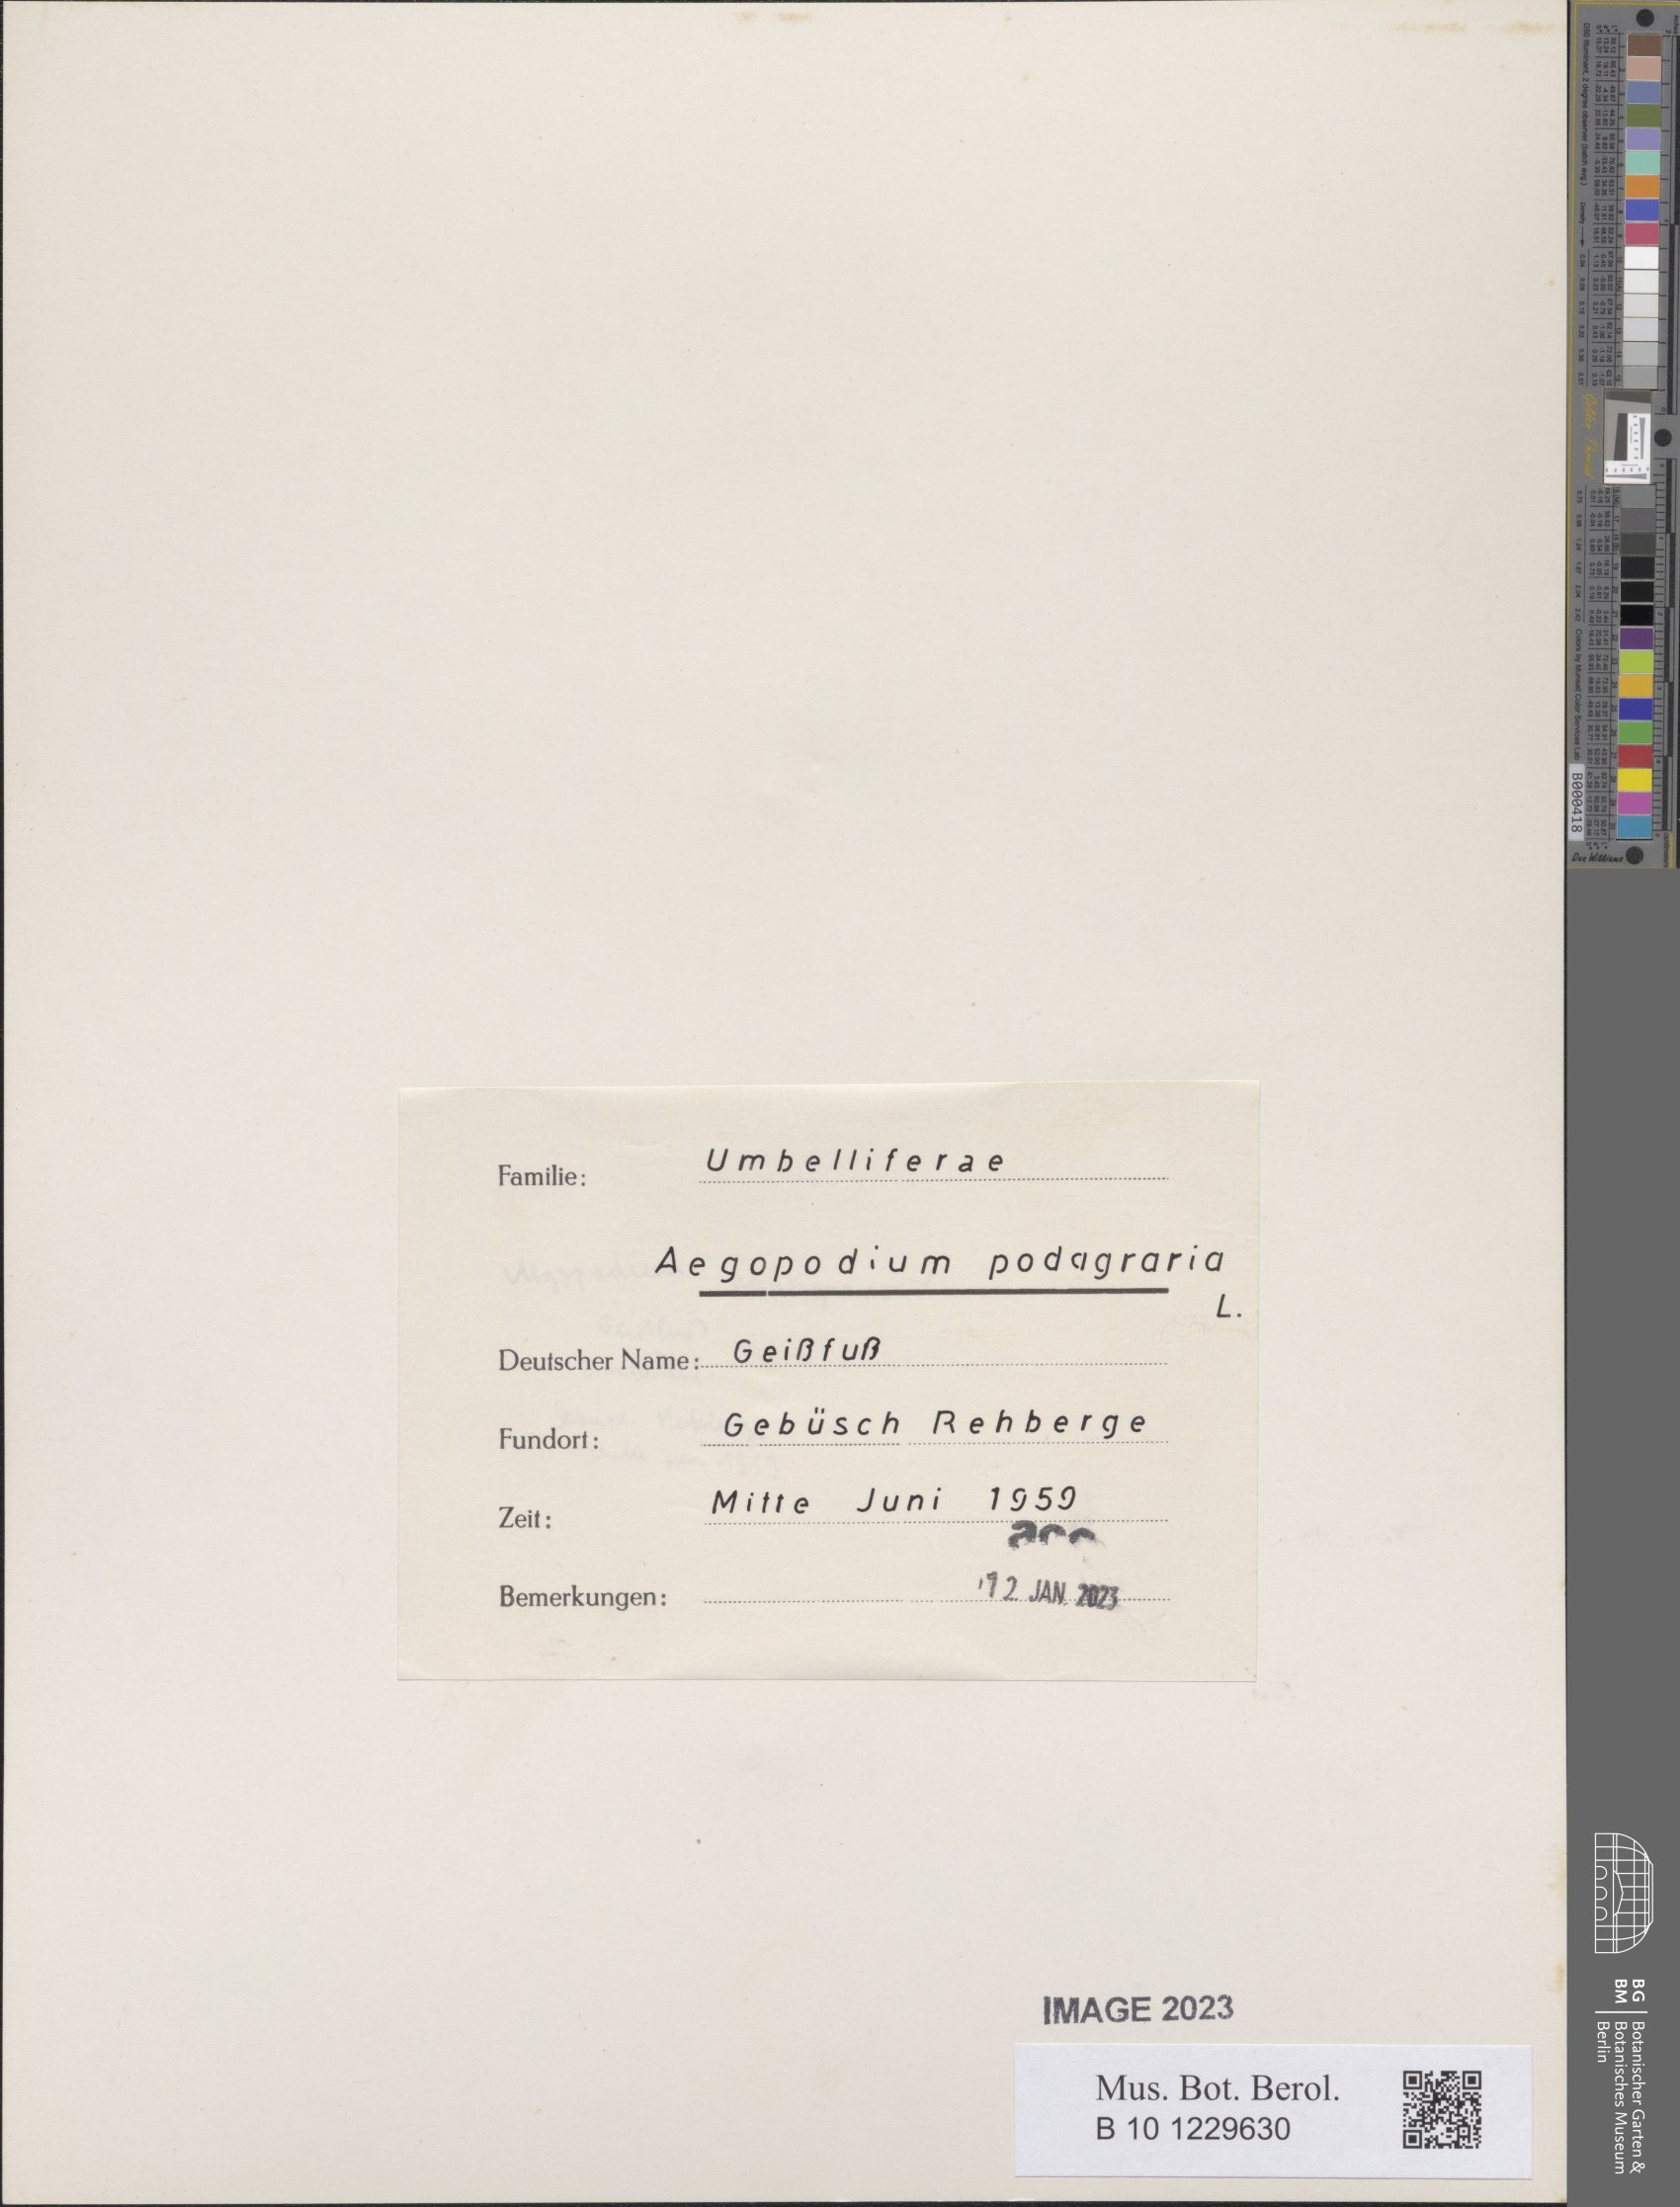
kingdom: Plantae
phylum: Tracheophyta
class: Magnoliopsida
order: Apiales
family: Apiaceae
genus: Aegopodium
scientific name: Aegopodium podagraria
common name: Ground-elder
